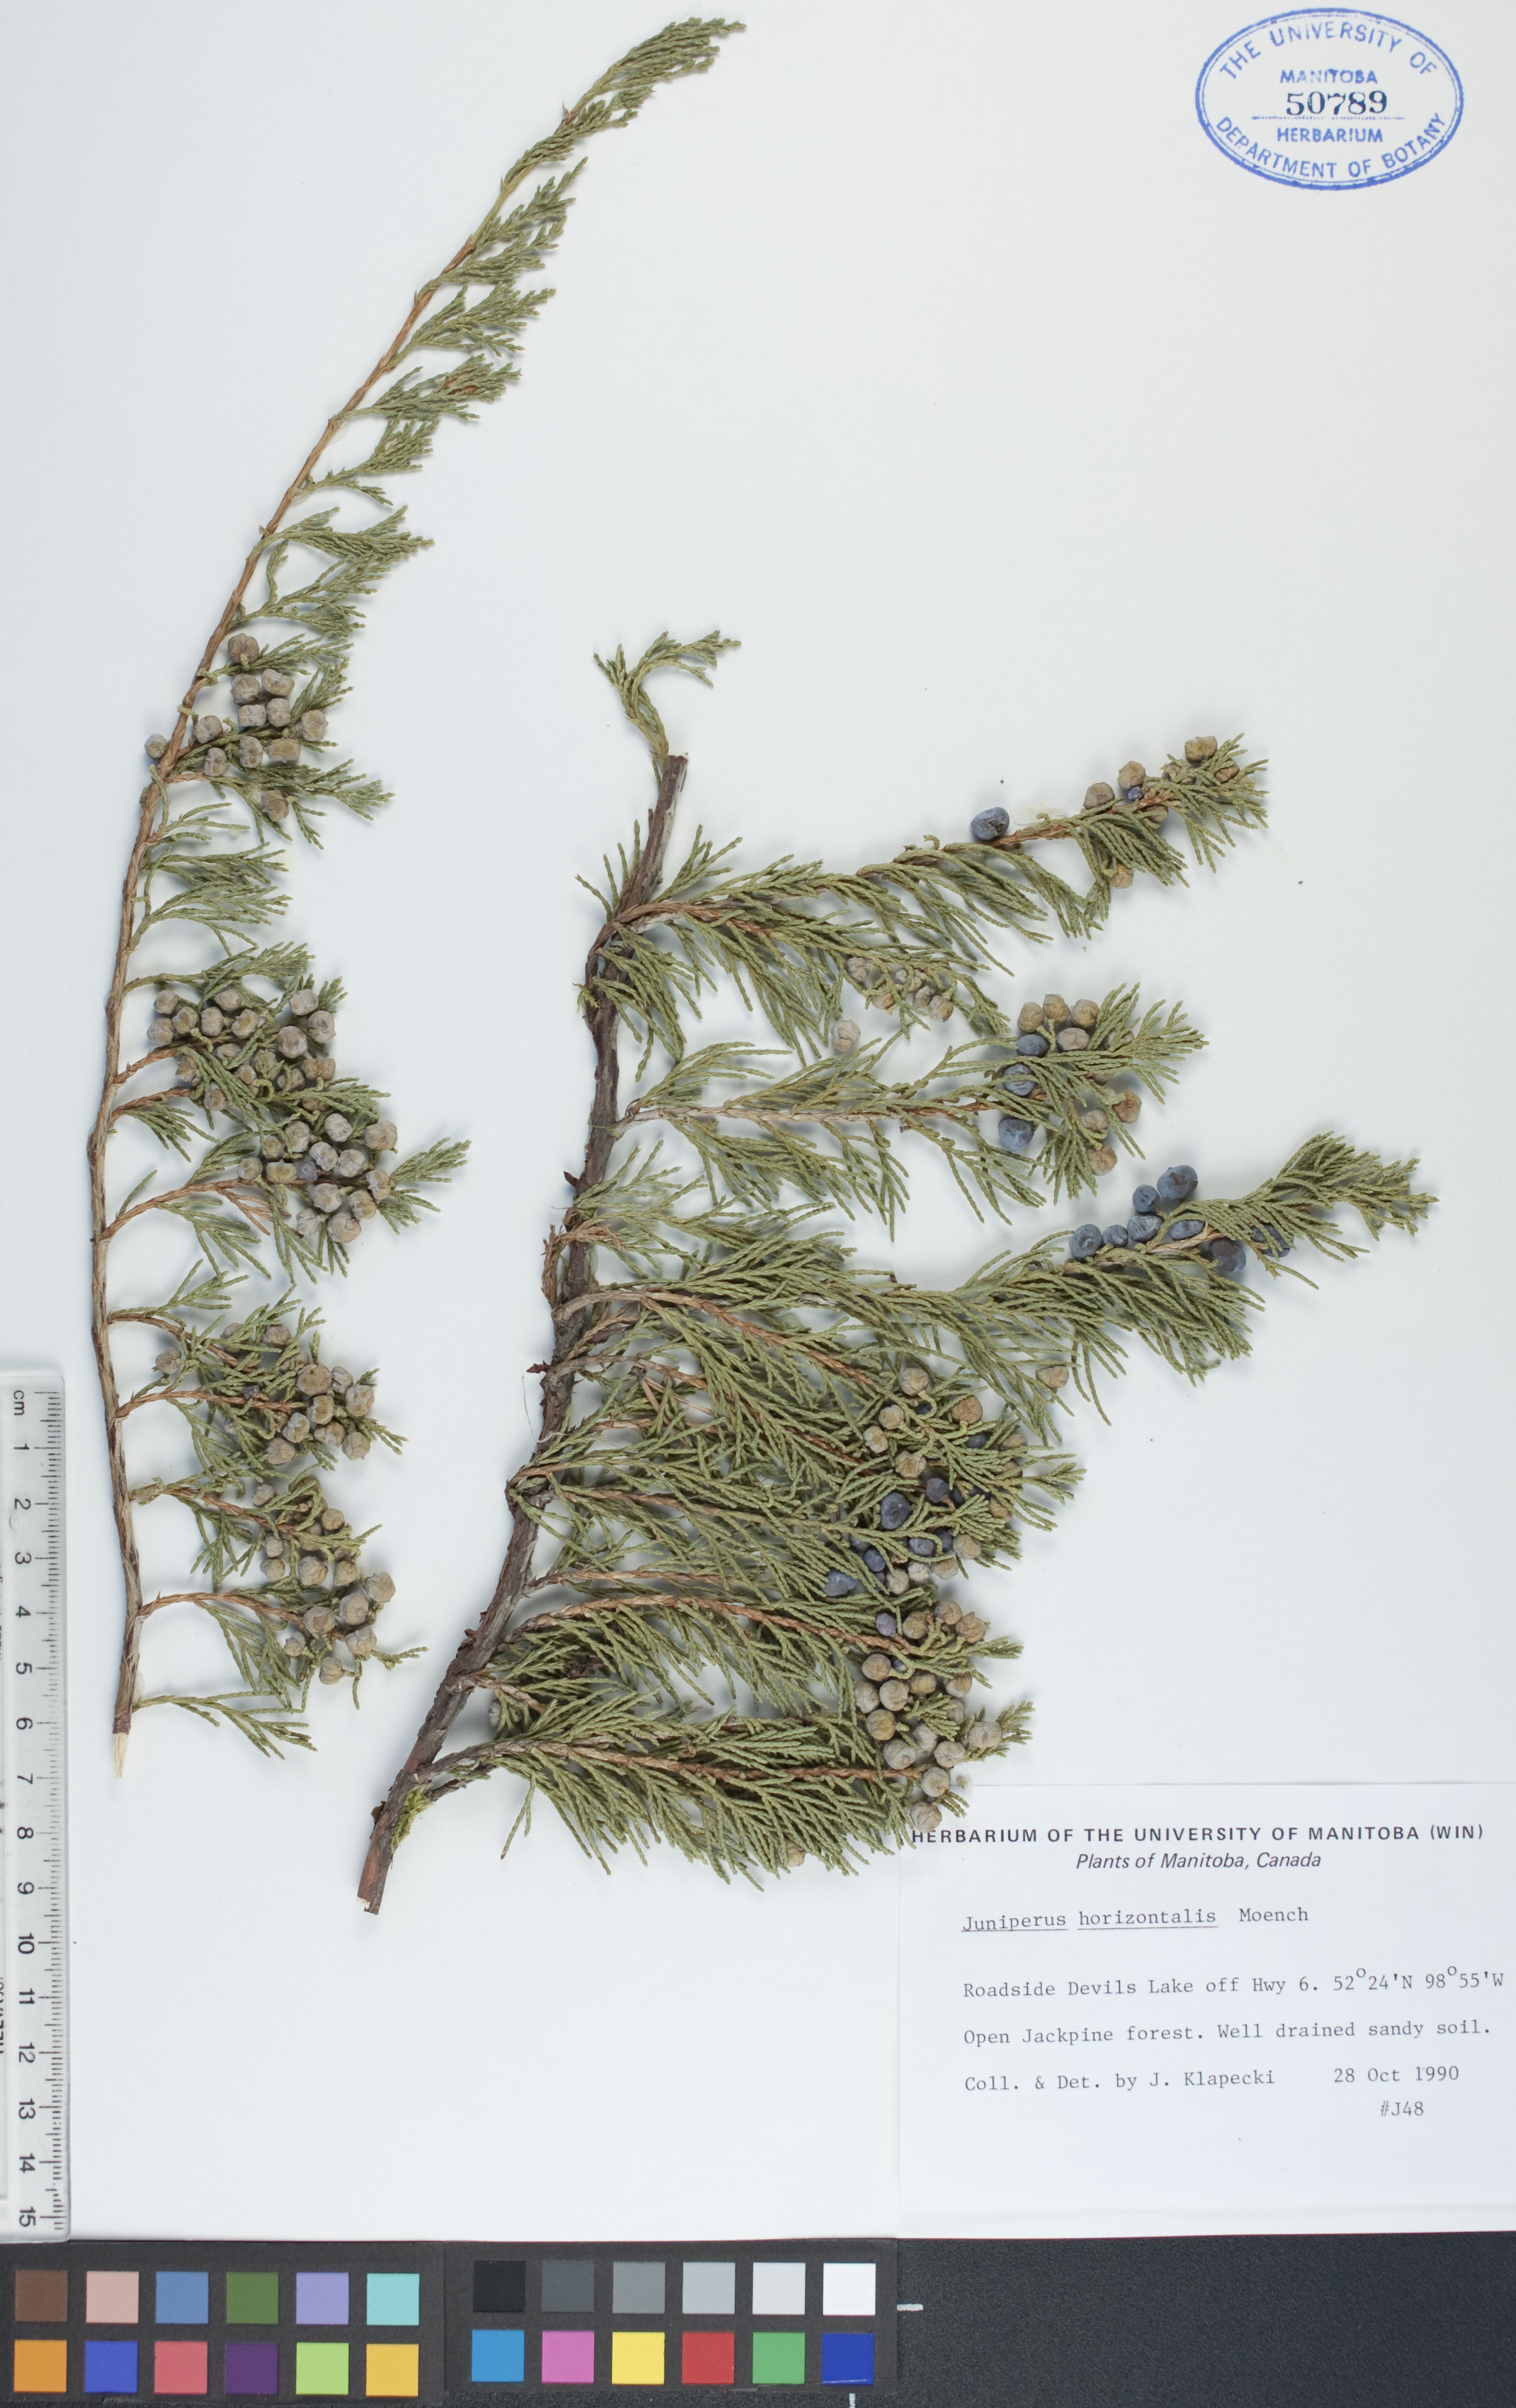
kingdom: Plantae
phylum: Tracheophyta
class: Pinopsida
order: Pinales
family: Cupressaceae
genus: Juniperus
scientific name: Juniperus horizontalis
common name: Creeping juniper
